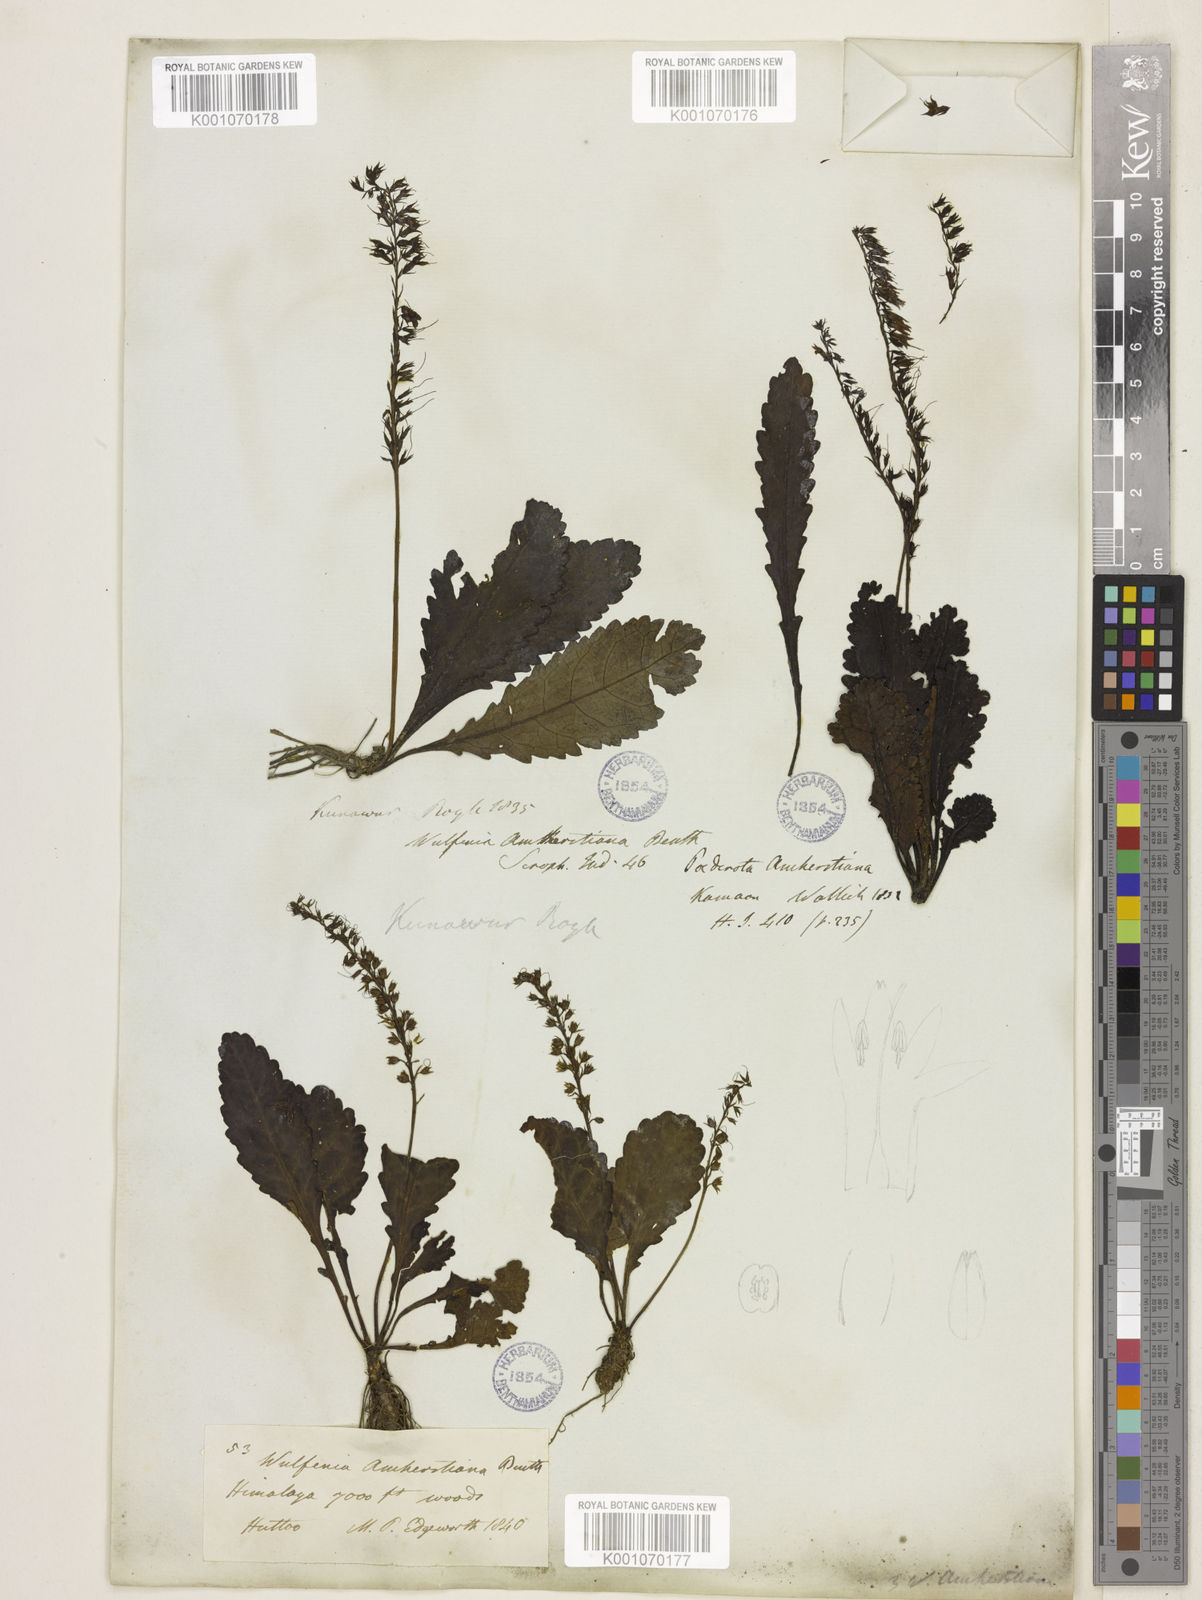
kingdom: Plantae
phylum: Tracheophyta
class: Magnoliopsida
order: Lamiales
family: Plantaginaceae
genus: Wulfeniopsis
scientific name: Wulfeniopsis amherstiana
